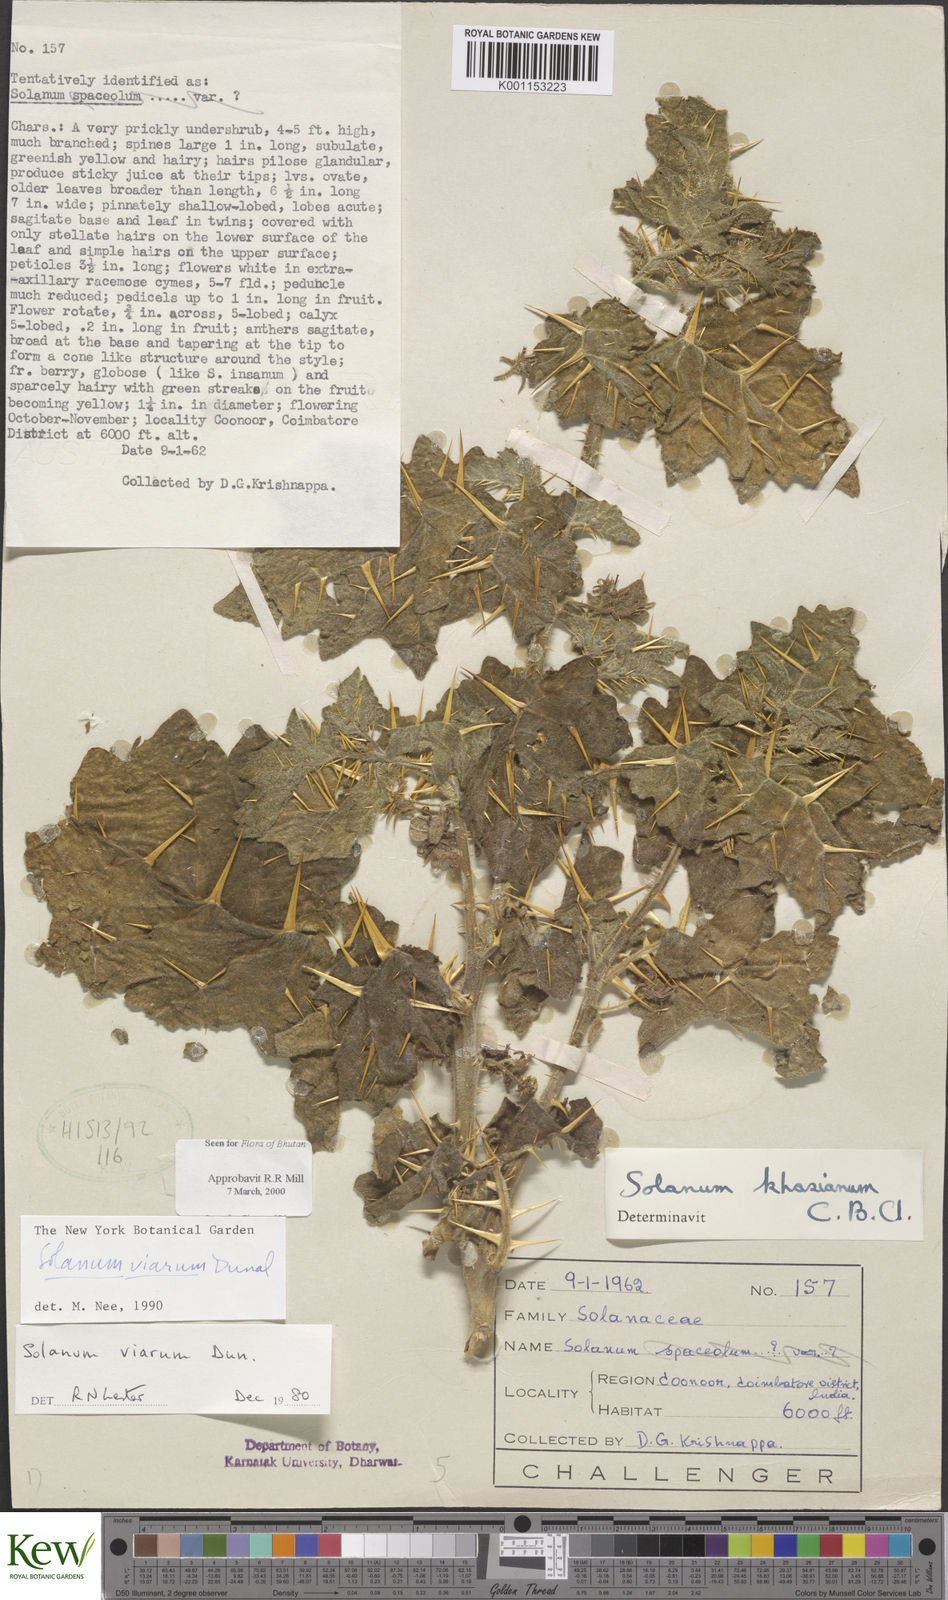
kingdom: Plantae
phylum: Tracheophyta
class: Magnoliopsida
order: Solanales
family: Solanaceae
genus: Solanum
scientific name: Solanum viarum
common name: Tropical soda apple
